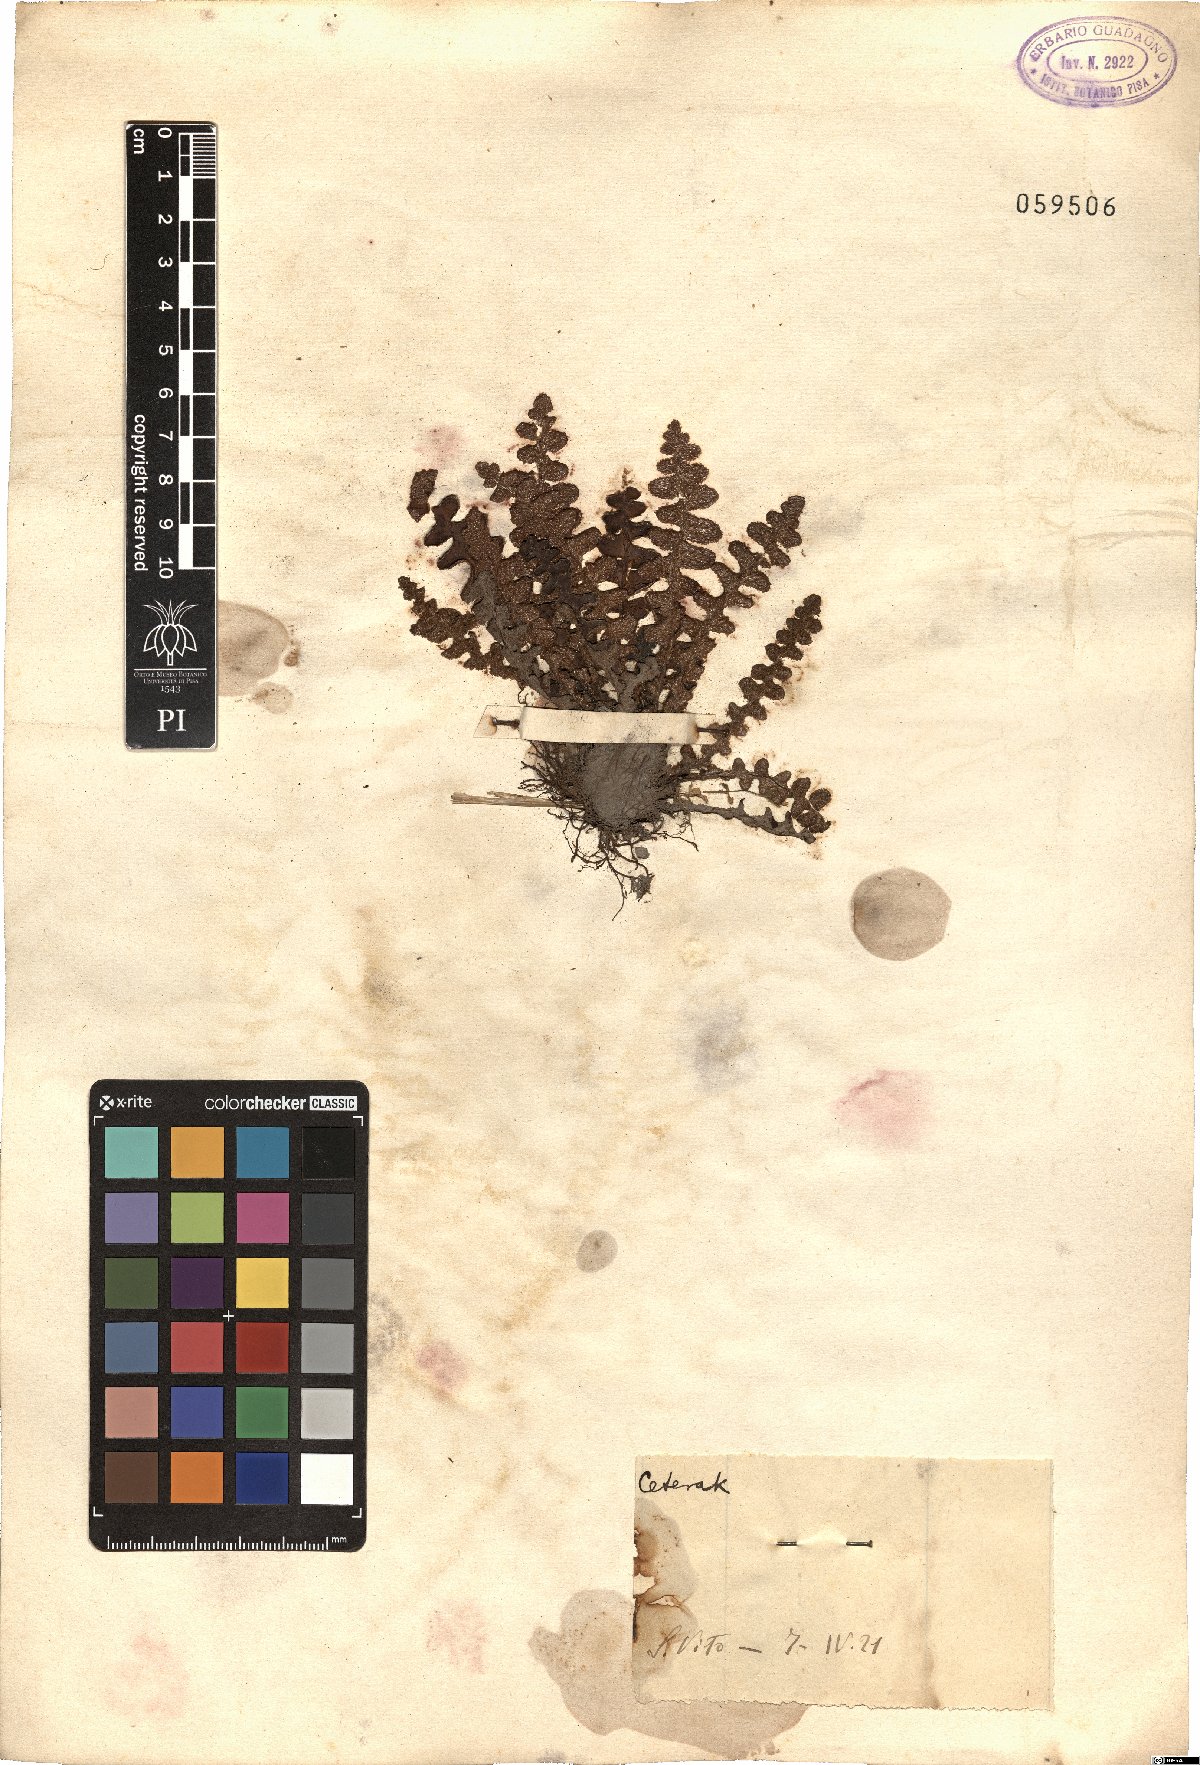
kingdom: Plantae
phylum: Tracheophyta
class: Polypodiopsida
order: Polypodiales
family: Aspleniaceae
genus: Ceterach
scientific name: Ceterach
